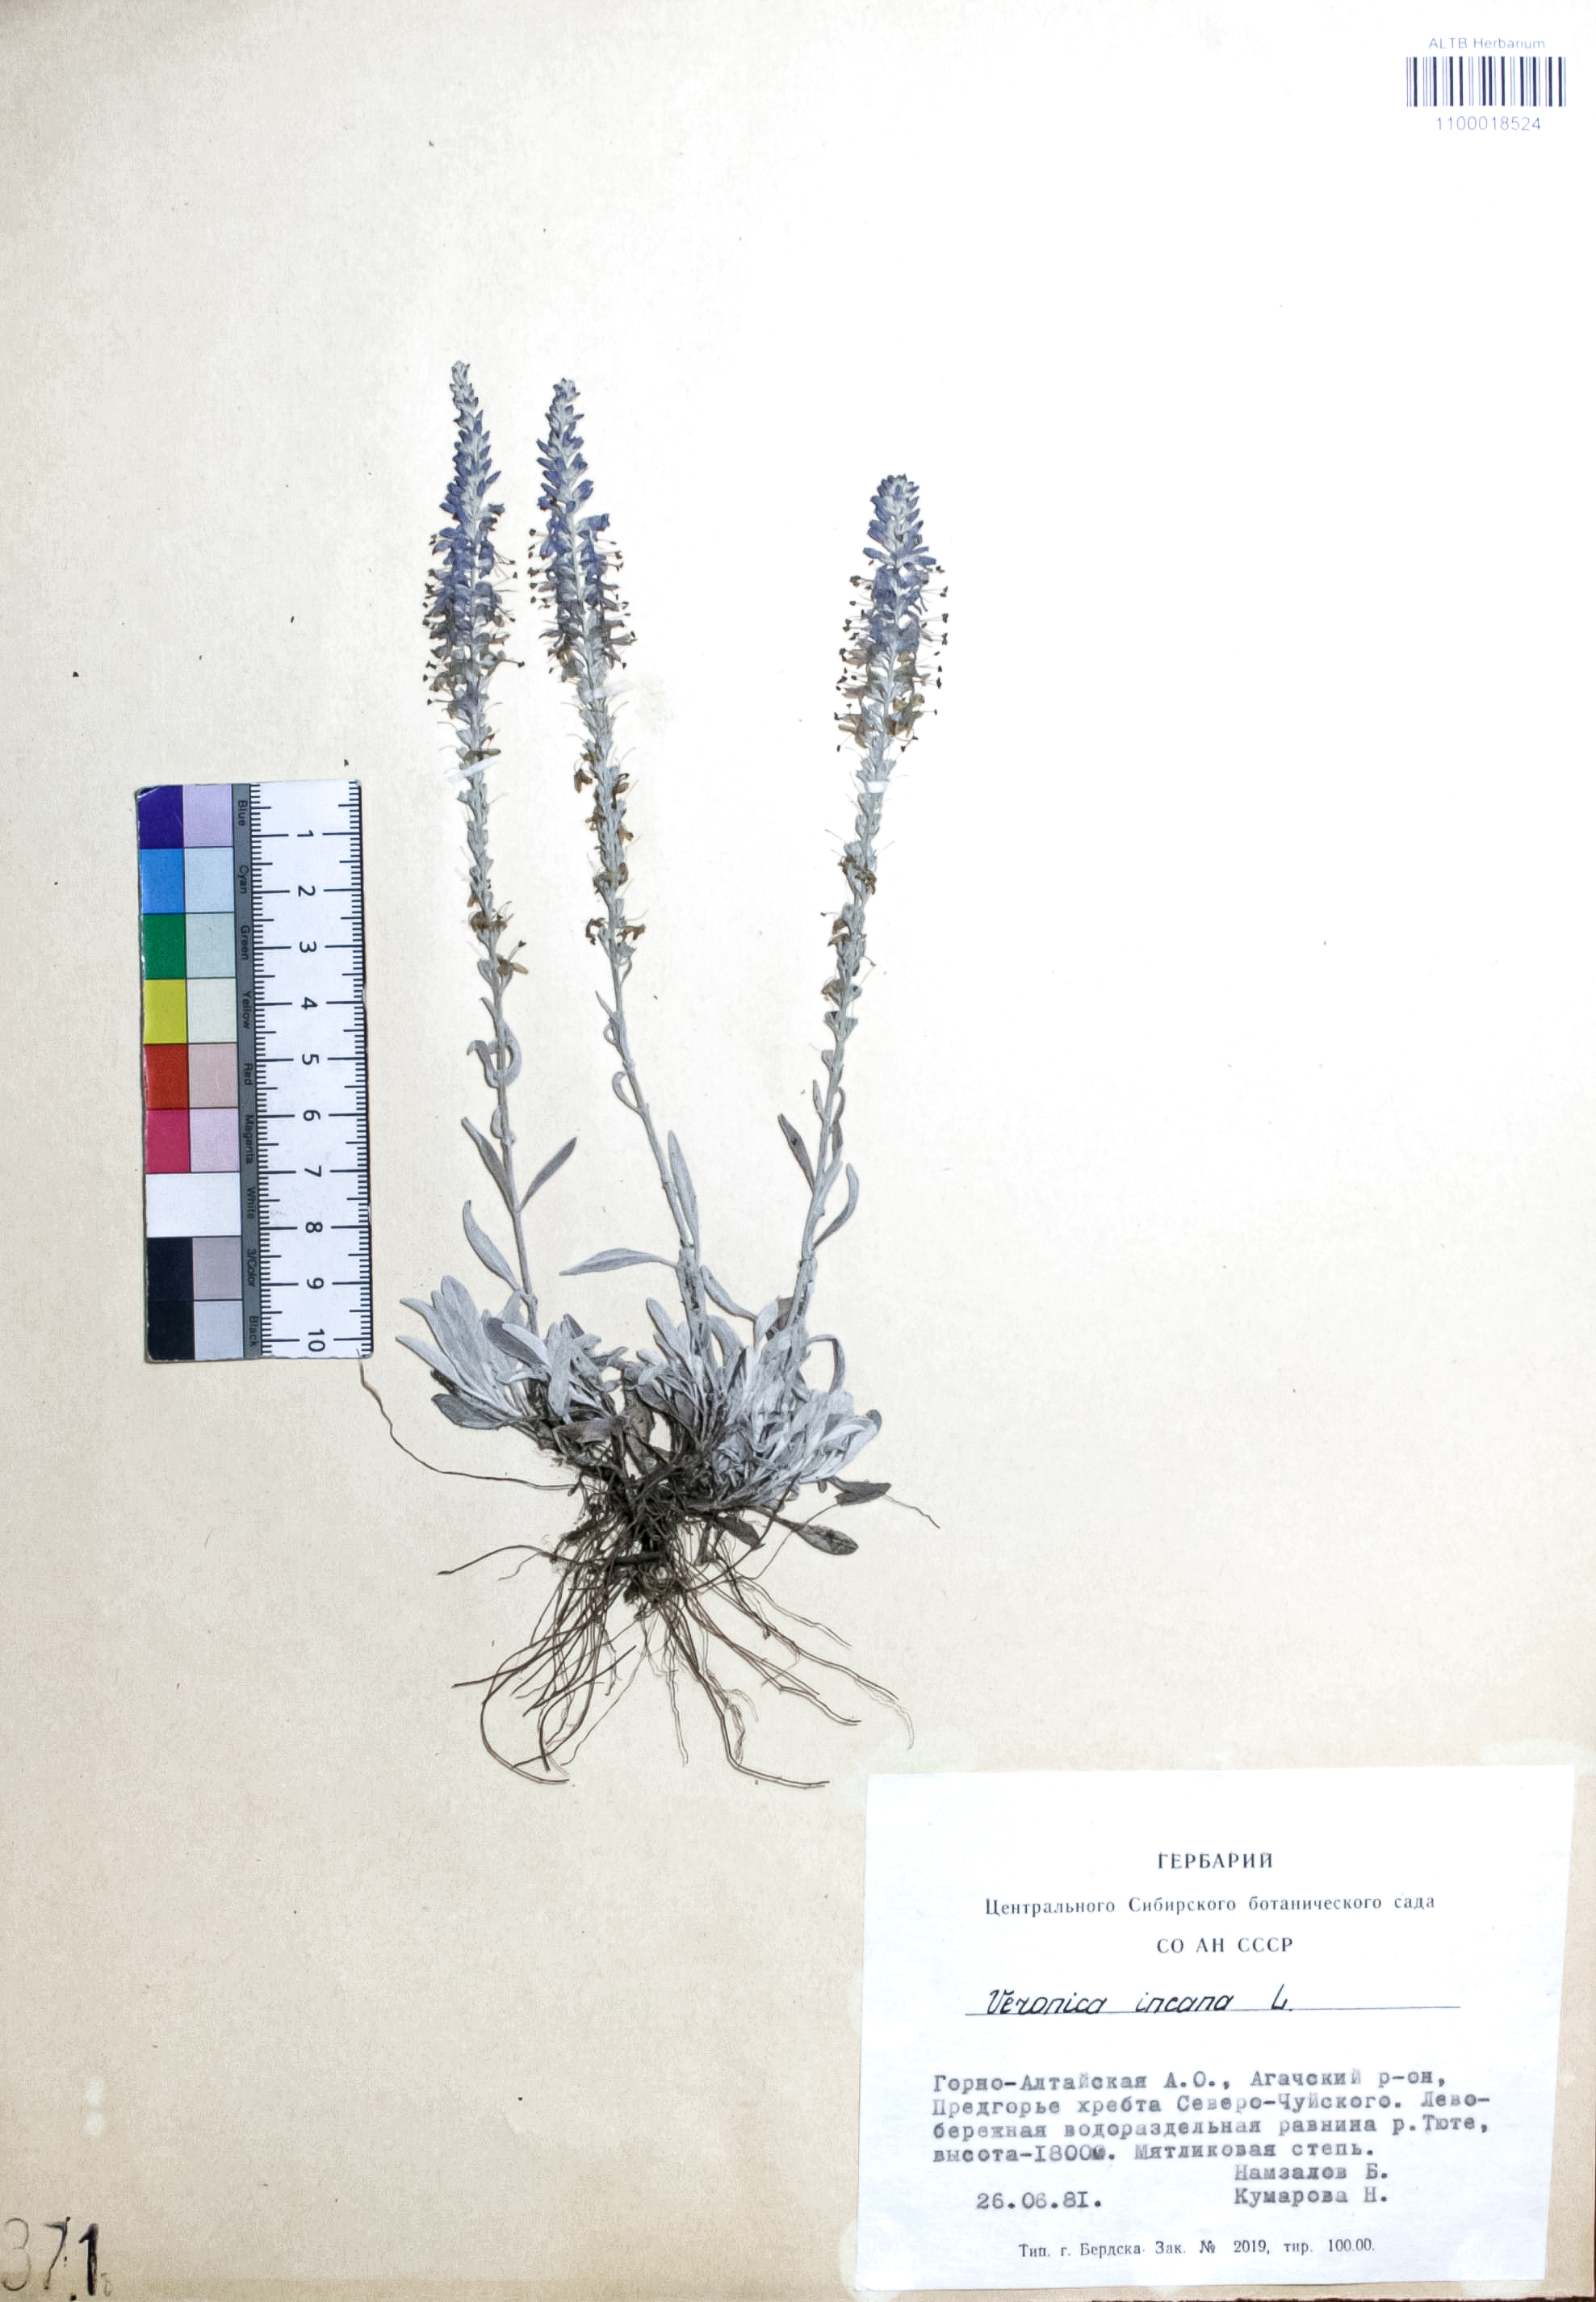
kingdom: Plantae
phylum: Tracheophyta
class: Magnoliopsida
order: Lamiales
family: Plantaginaceae
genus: Veronica
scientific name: Veronica incana
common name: Silver speedwell
